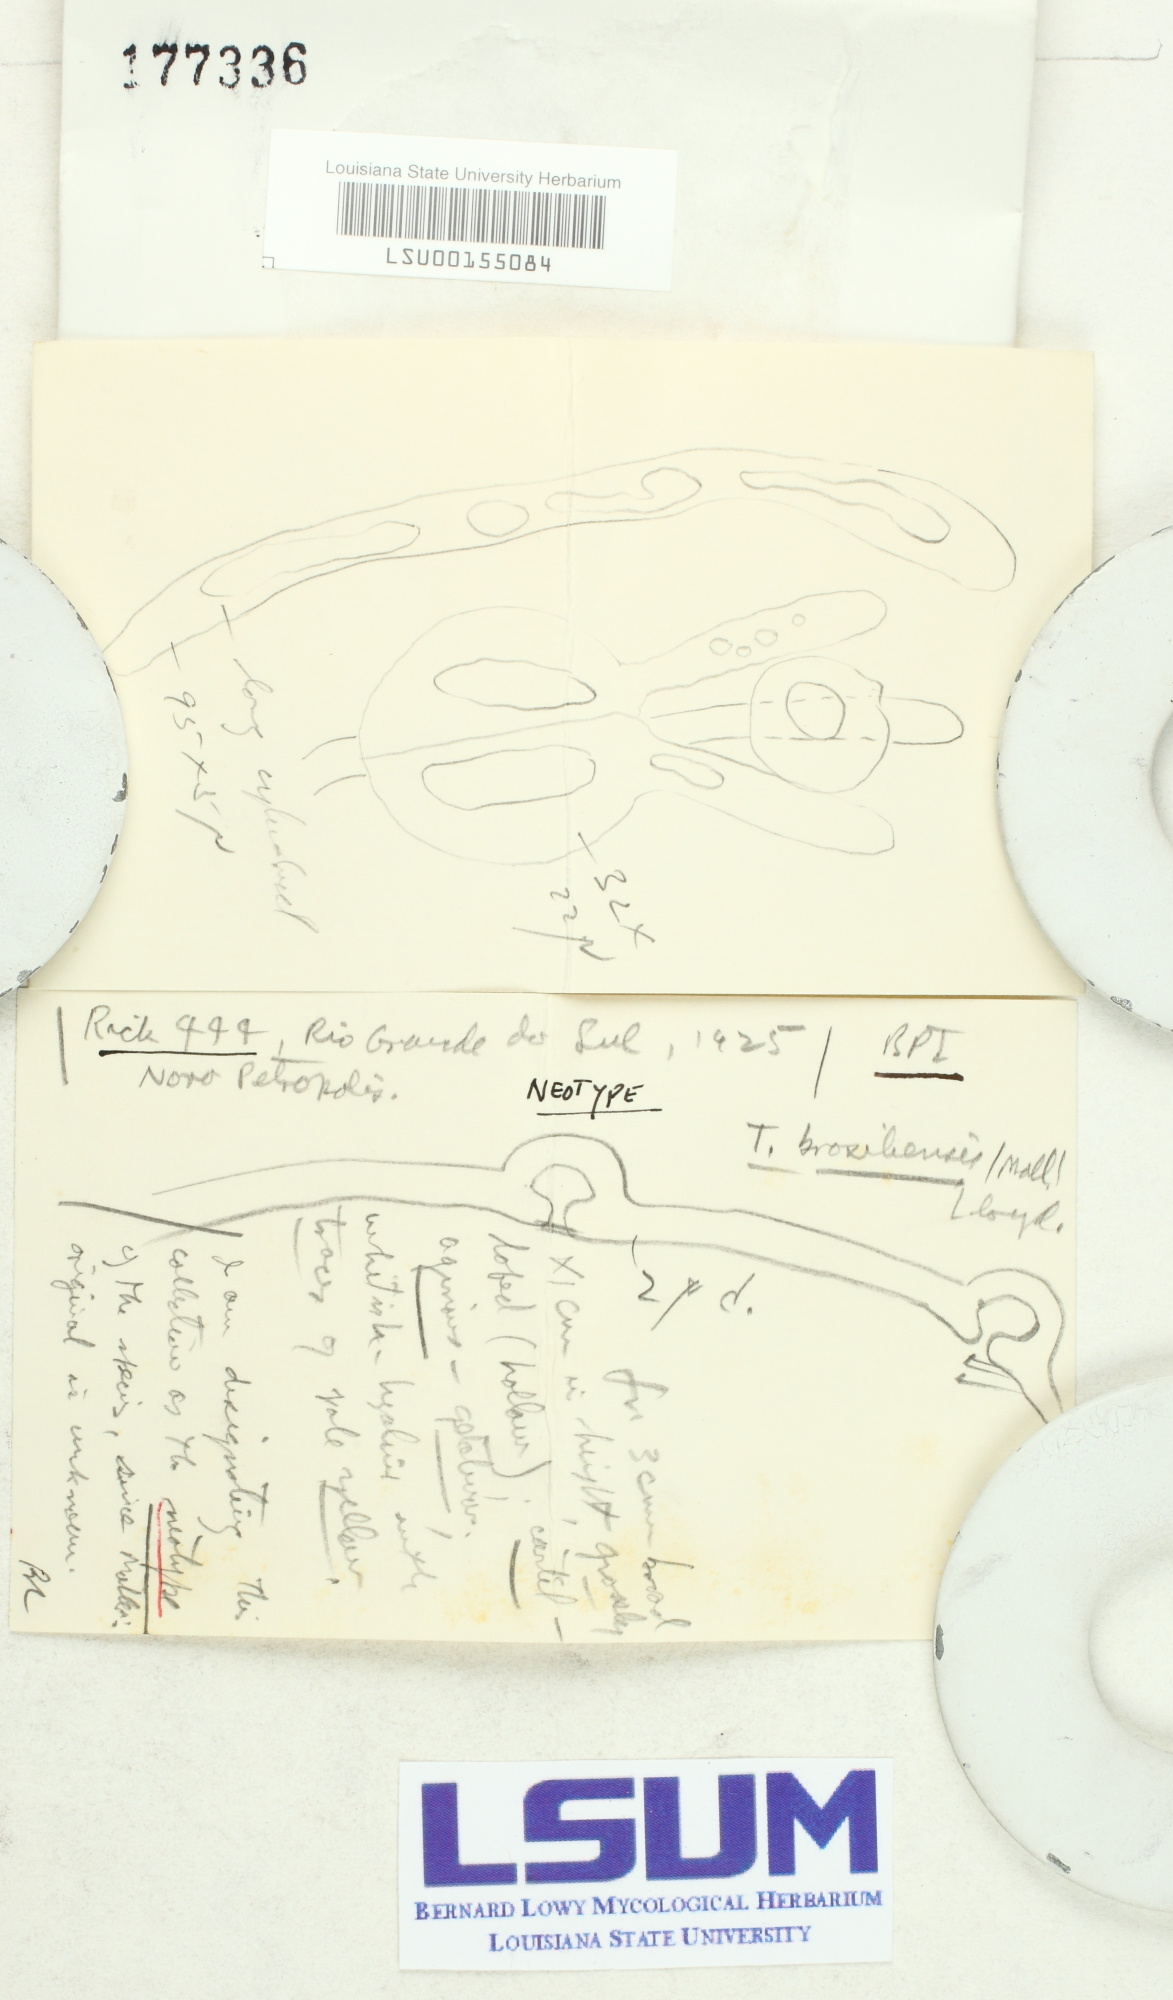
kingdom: Fungi
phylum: Basidiomycota
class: Tremellomycetes
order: Tremellales
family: Tremellaceae
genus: Tremella
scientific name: Tremella mesenterica
